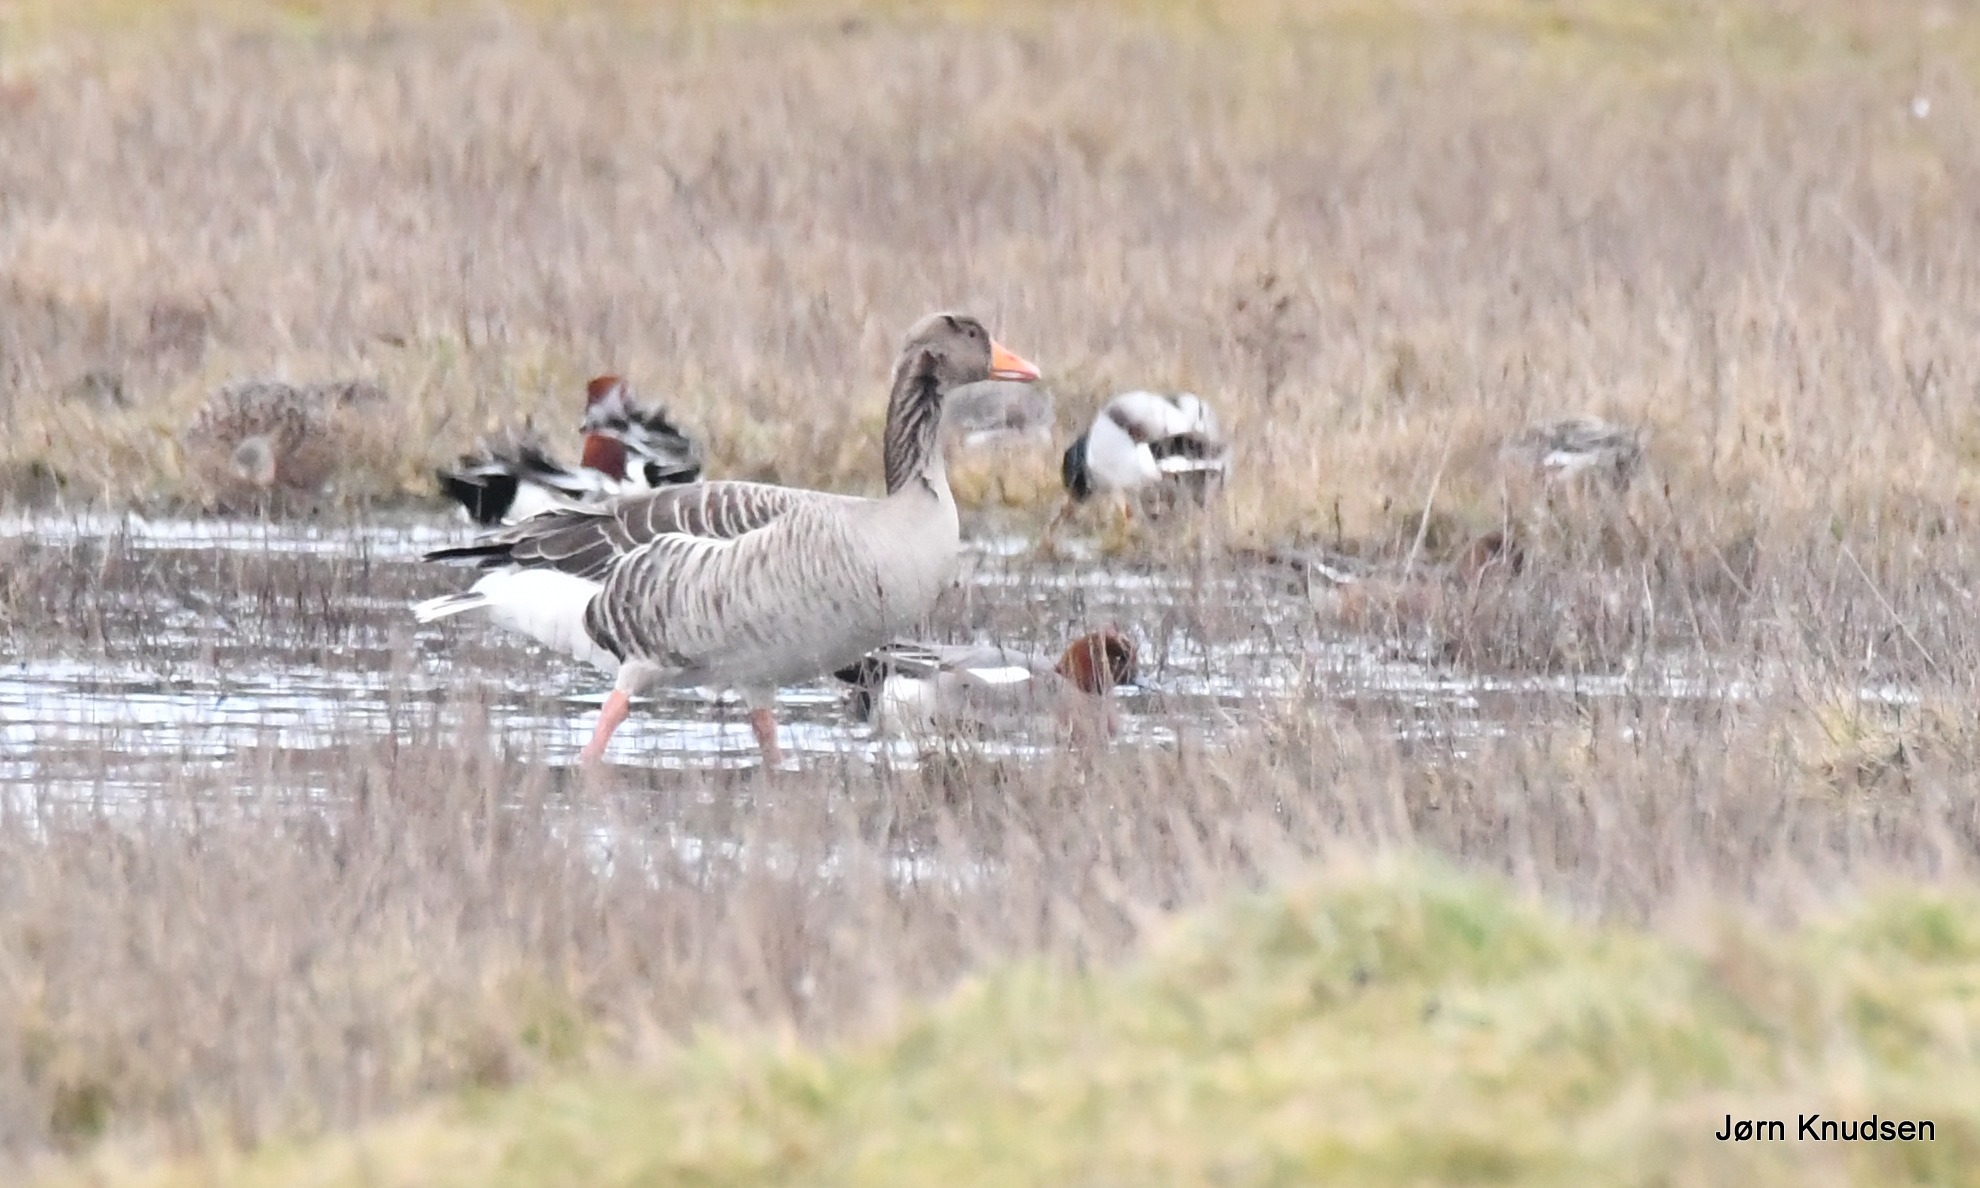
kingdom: Animalia
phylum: Chordata
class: Aves
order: Anseriformes
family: Anatidae
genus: Anser
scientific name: Anser anser
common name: Grågås
